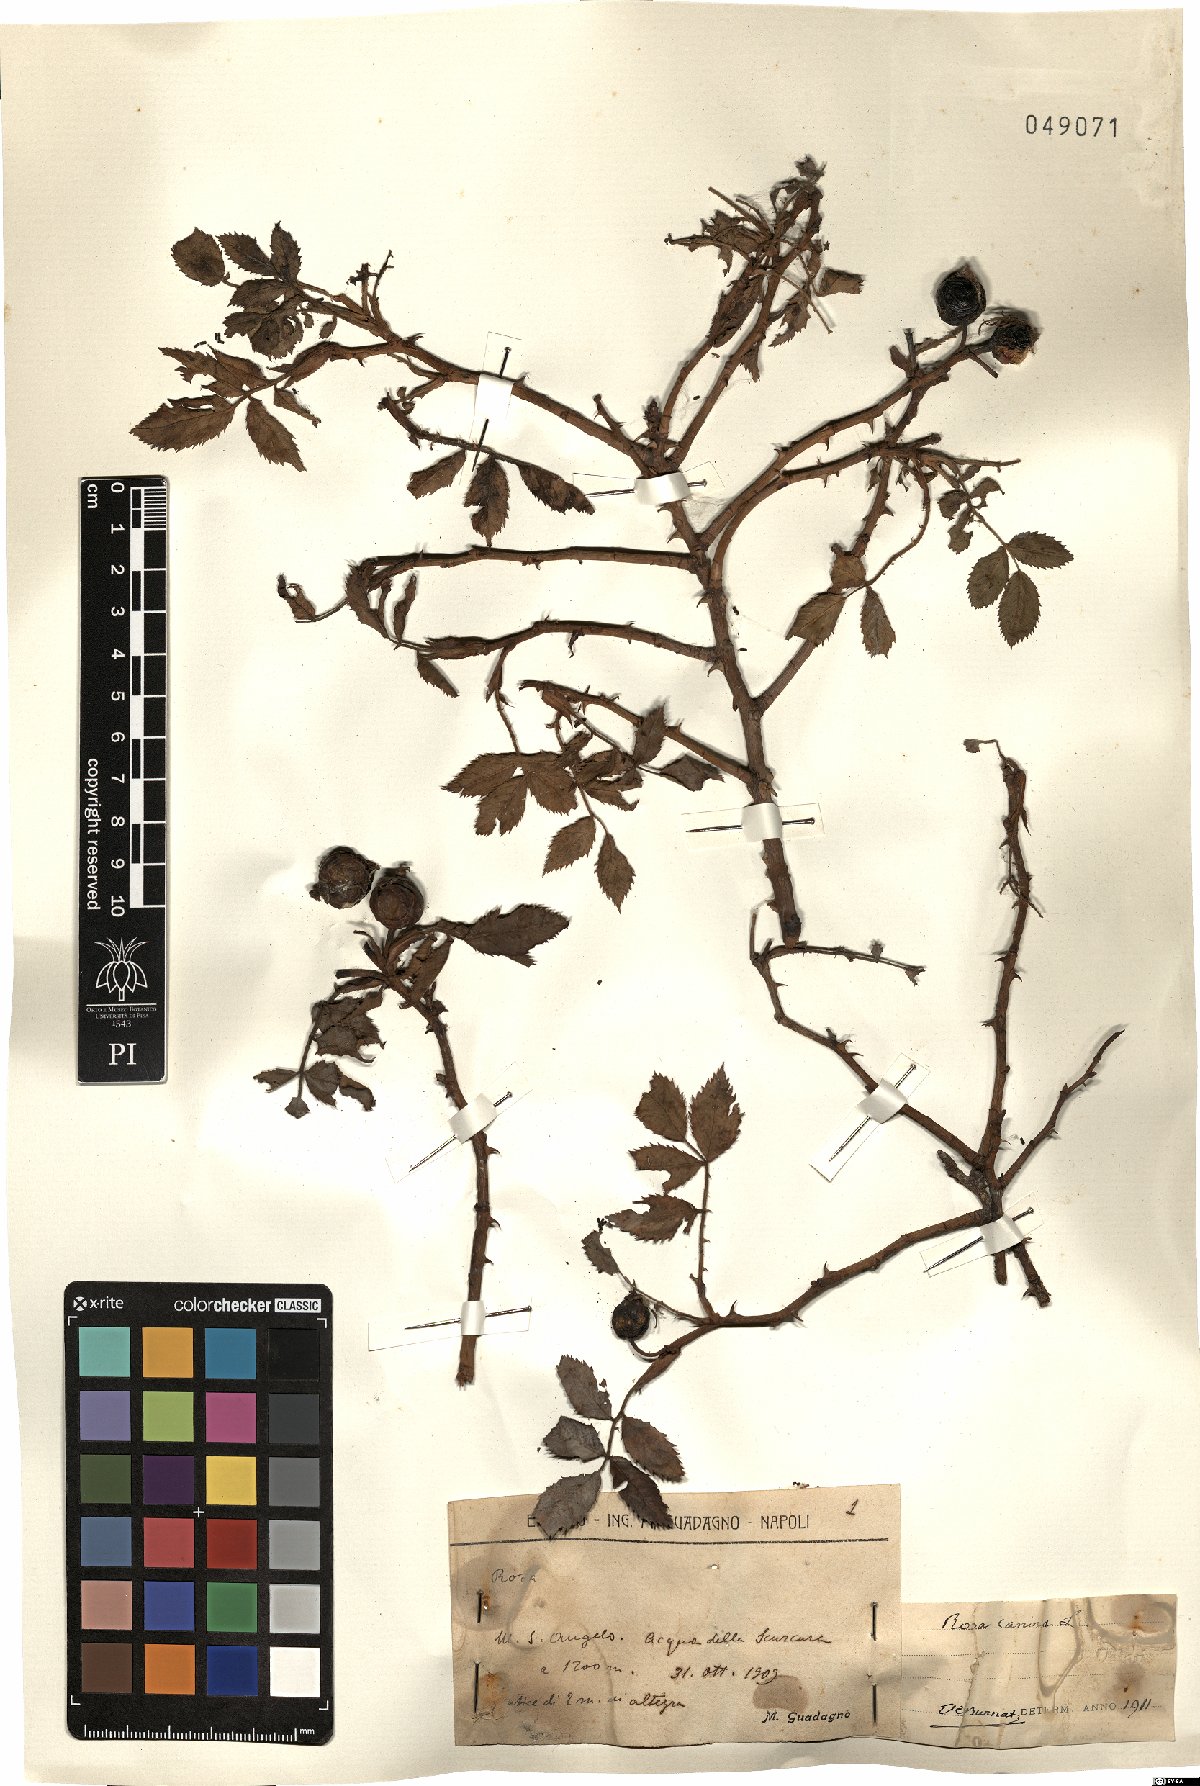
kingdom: Plantae
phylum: Tracheophyta
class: Magnoliopsida
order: Rosales
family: Rosaceae
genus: Rosa
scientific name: Rosa canina
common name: Dog rose
